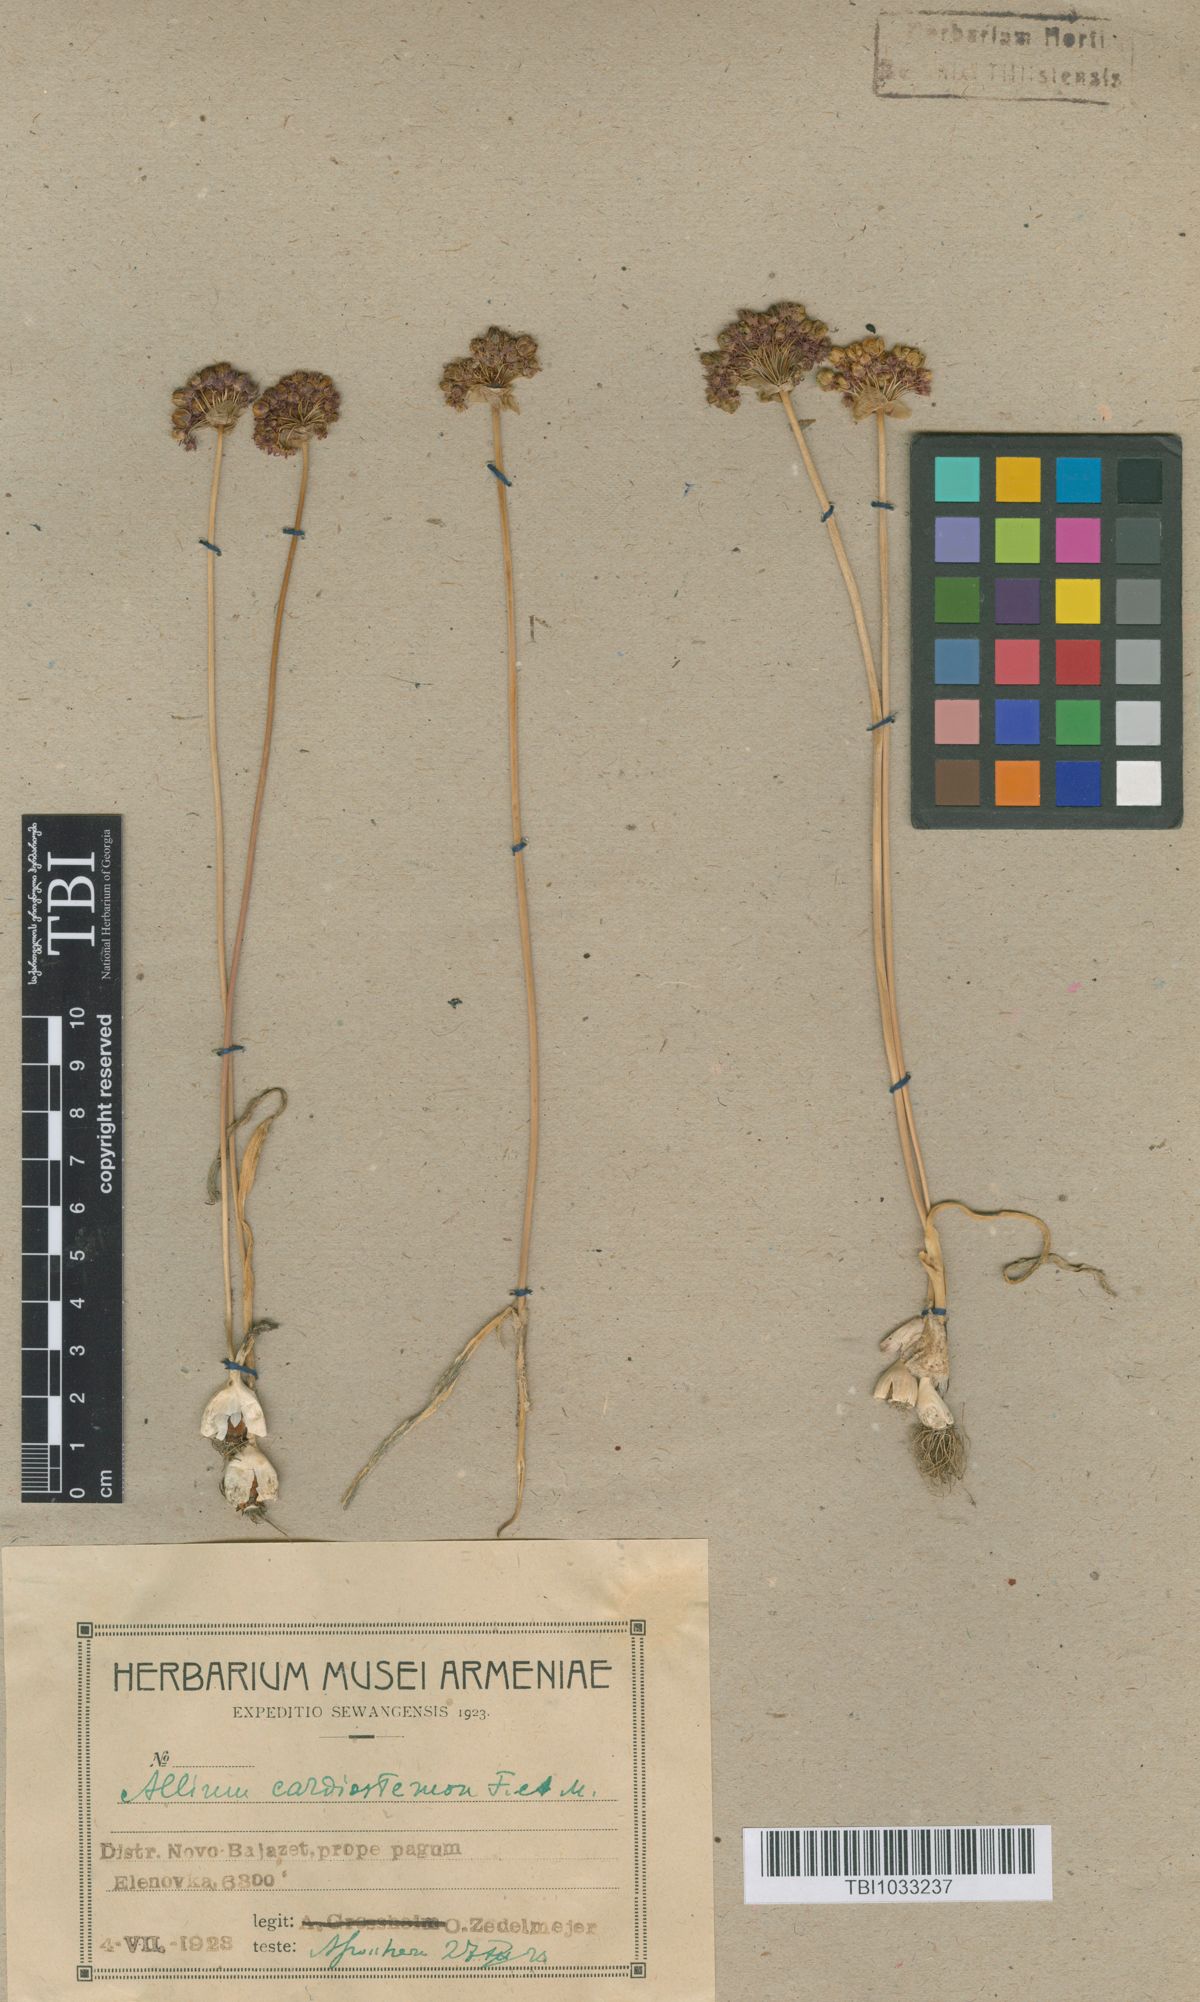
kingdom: Plantae
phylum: Tracheophyta
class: Liliopsida
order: Asparagales
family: Amaryllidaceae
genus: Allium
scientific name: Allium cardiostemon
